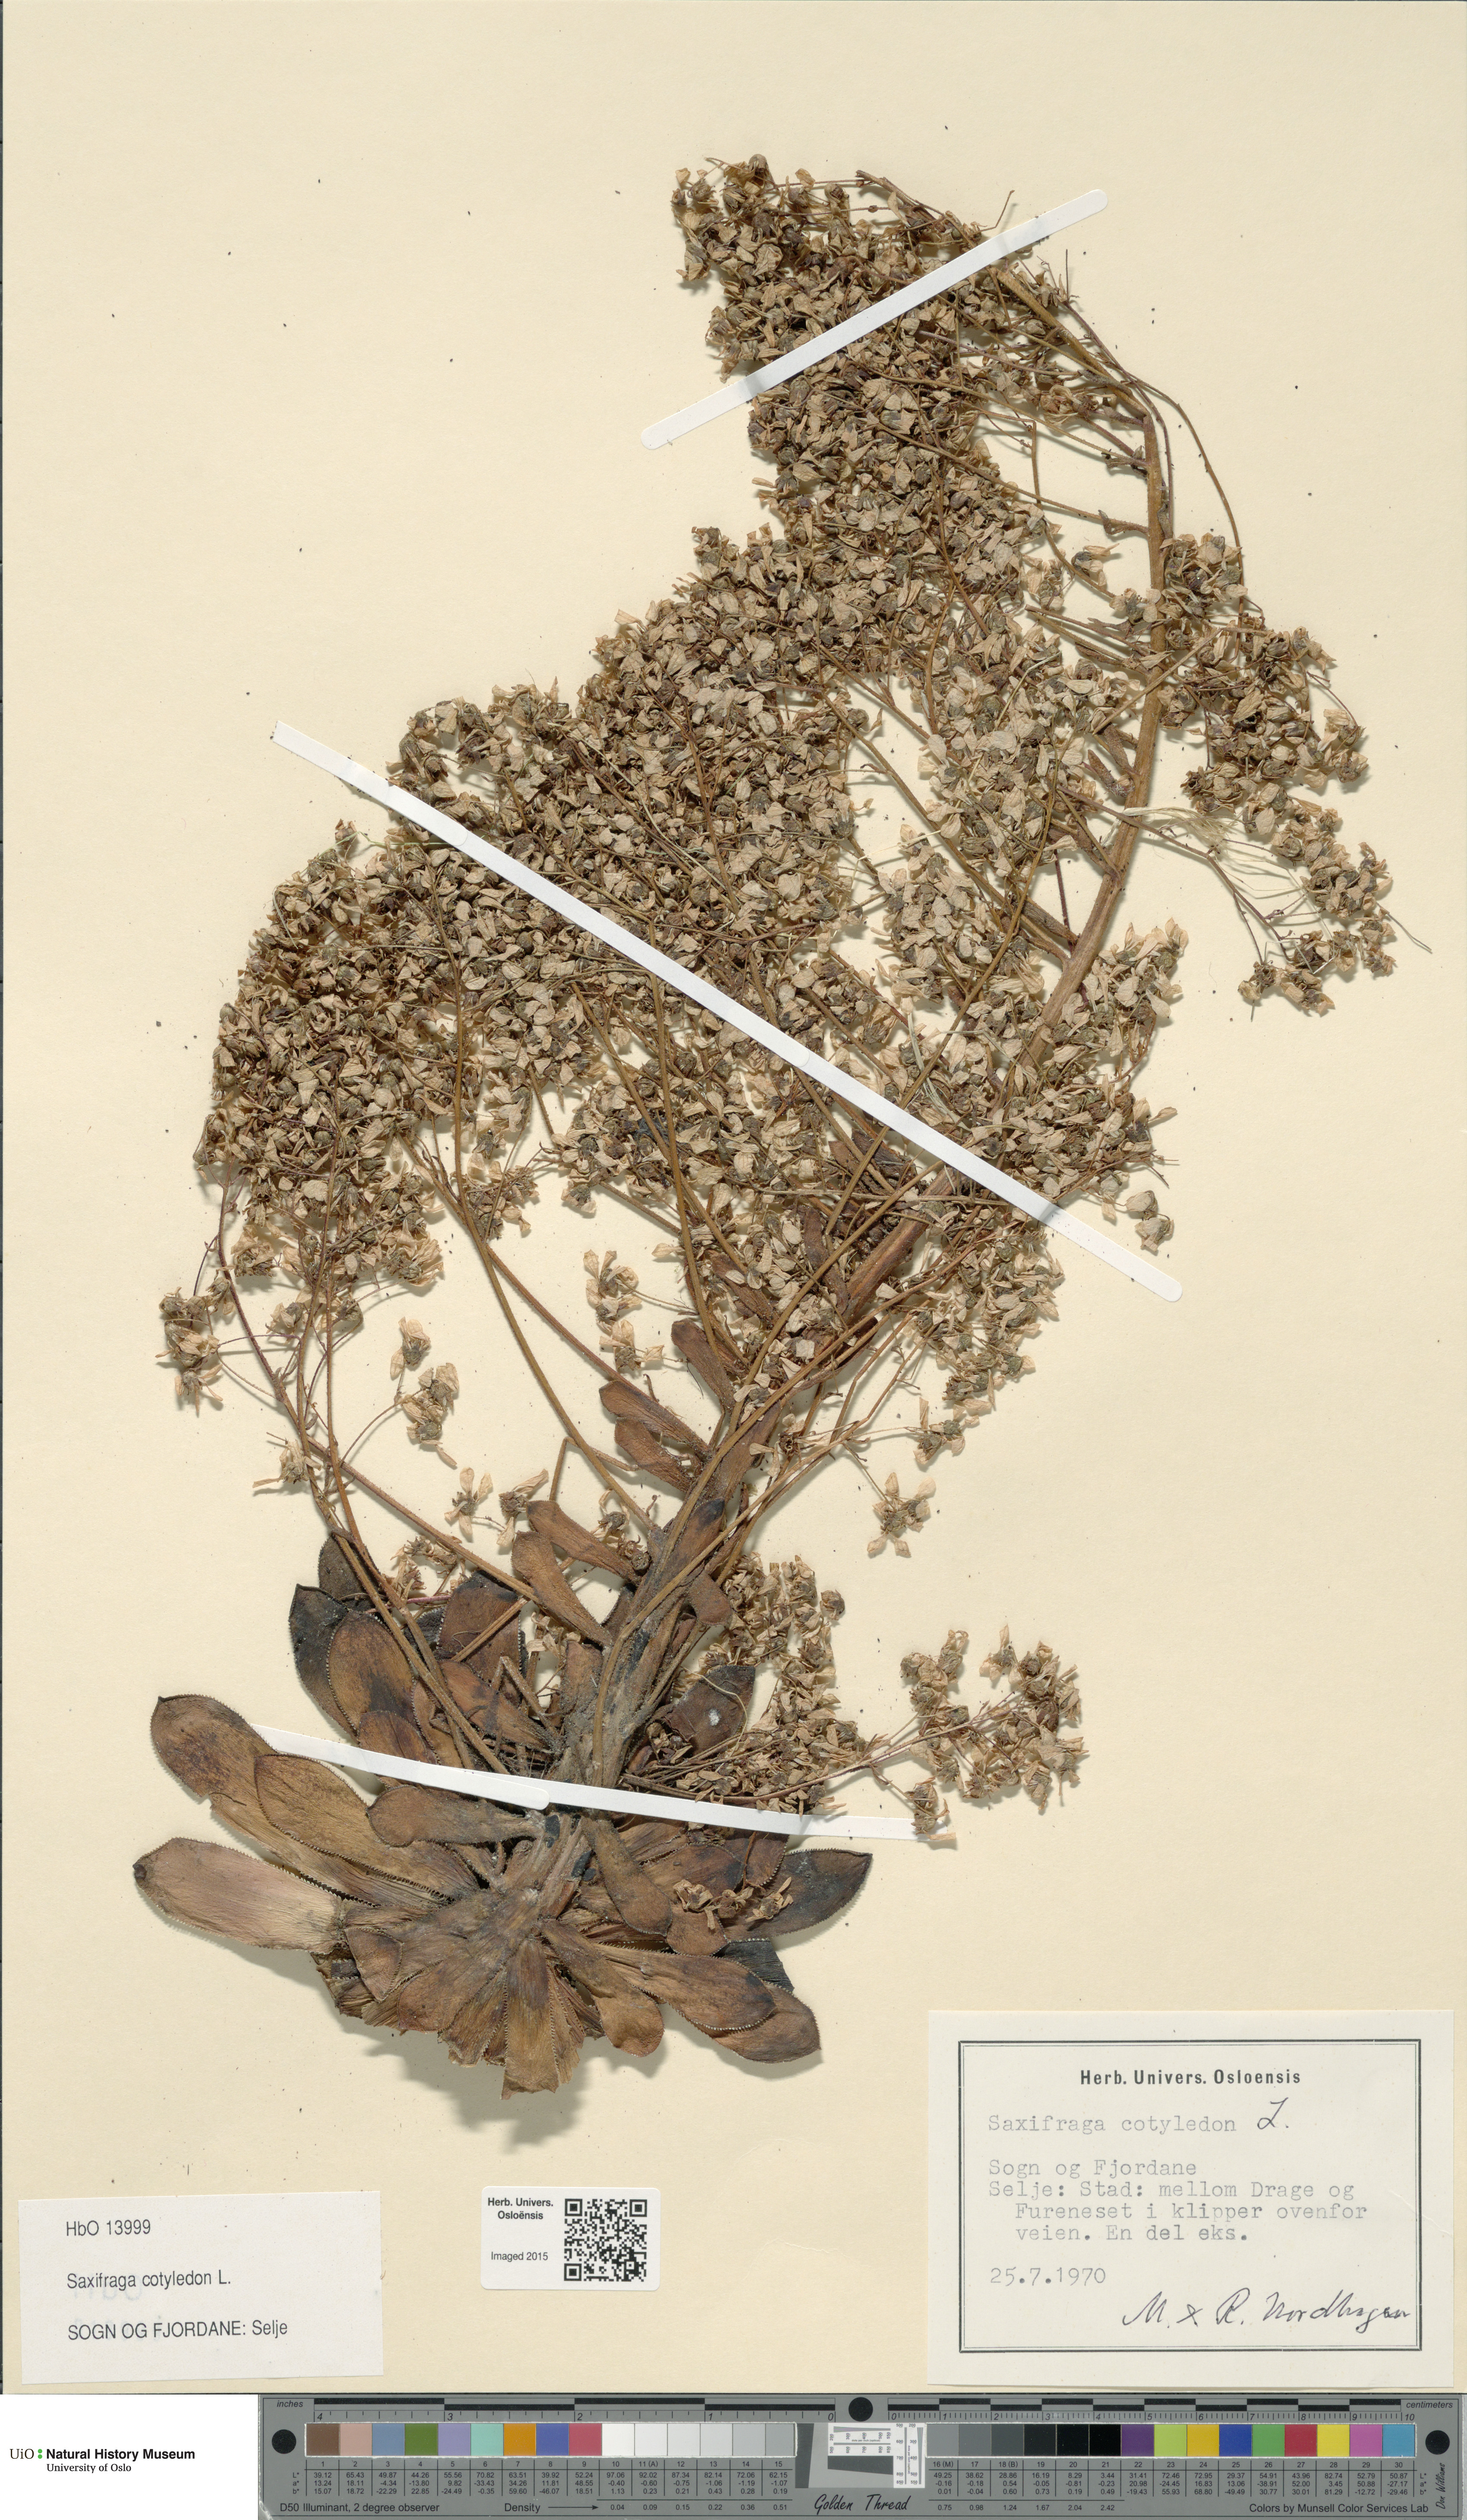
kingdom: Plantae
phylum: Tracheophyta
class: Magnoliopsida
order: Saxifragales
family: Saxifragaceae
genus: Saxifraga
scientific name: Saxifraga cotyledon
